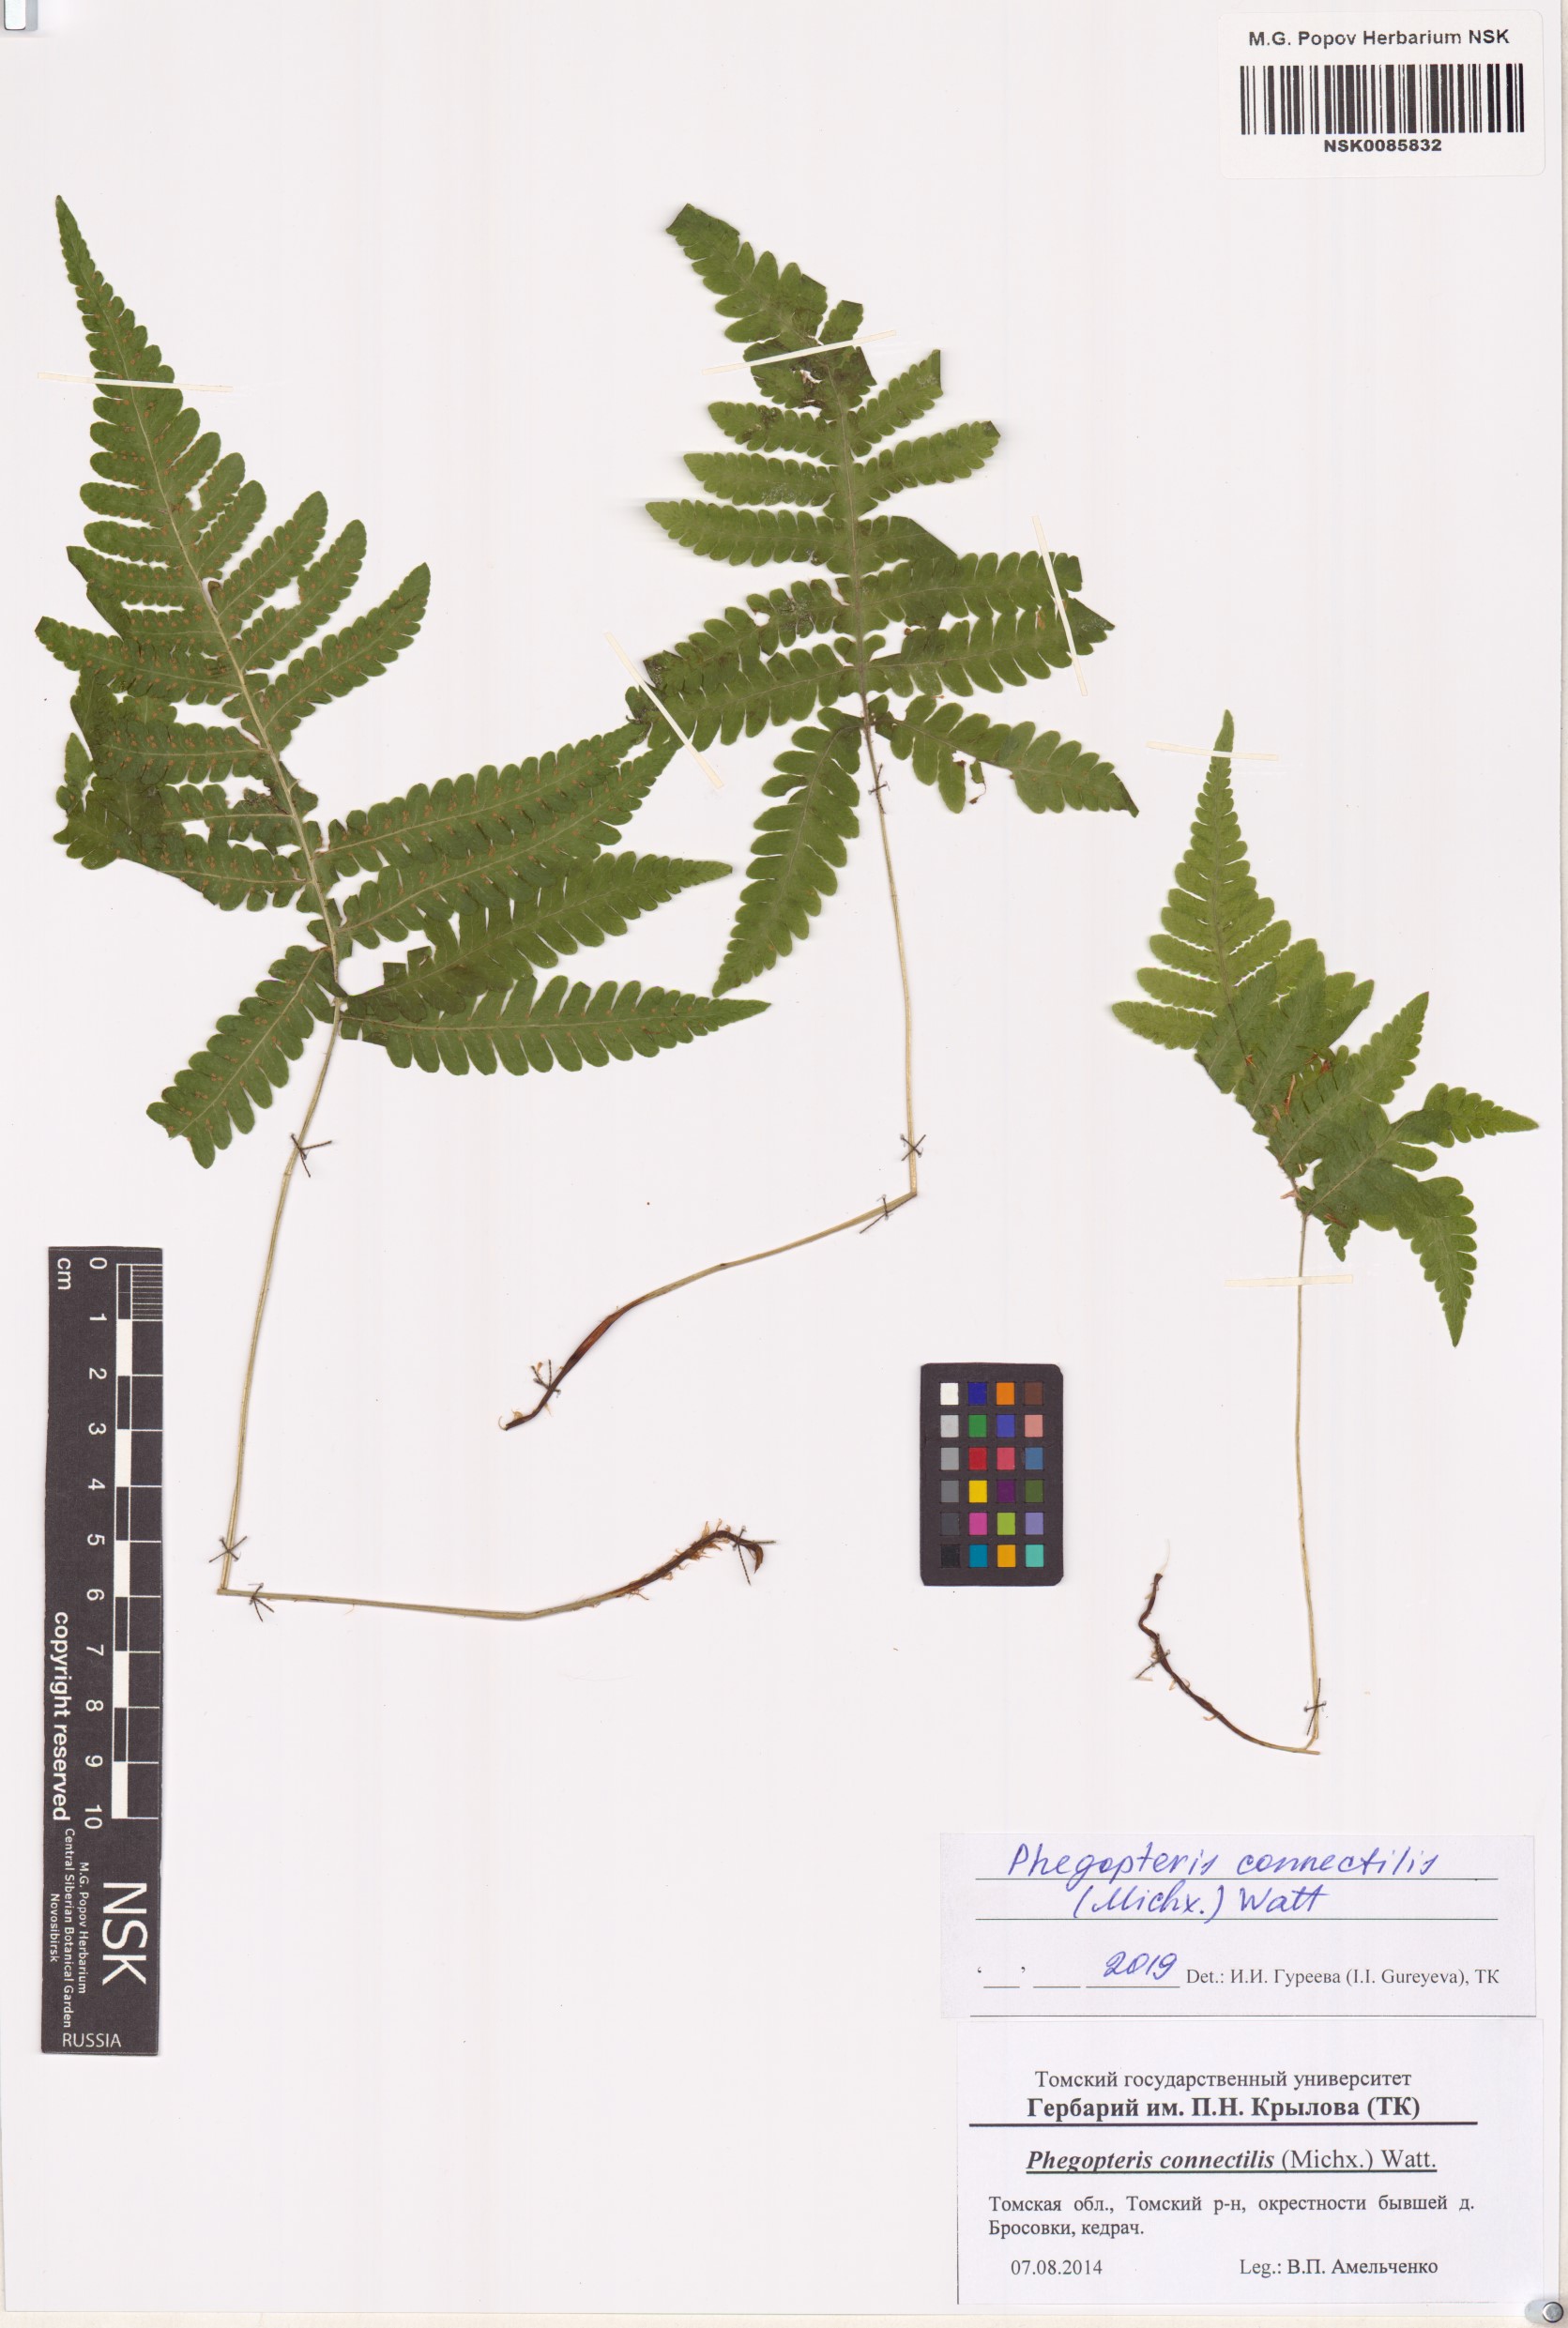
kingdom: Plantae
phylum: Tracheophyta
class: Polypodiopsida
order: Polypodiales
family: Thelypteridaceae
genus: Phegopteris
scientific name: Phegopteris connectilis
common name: Beech fern
